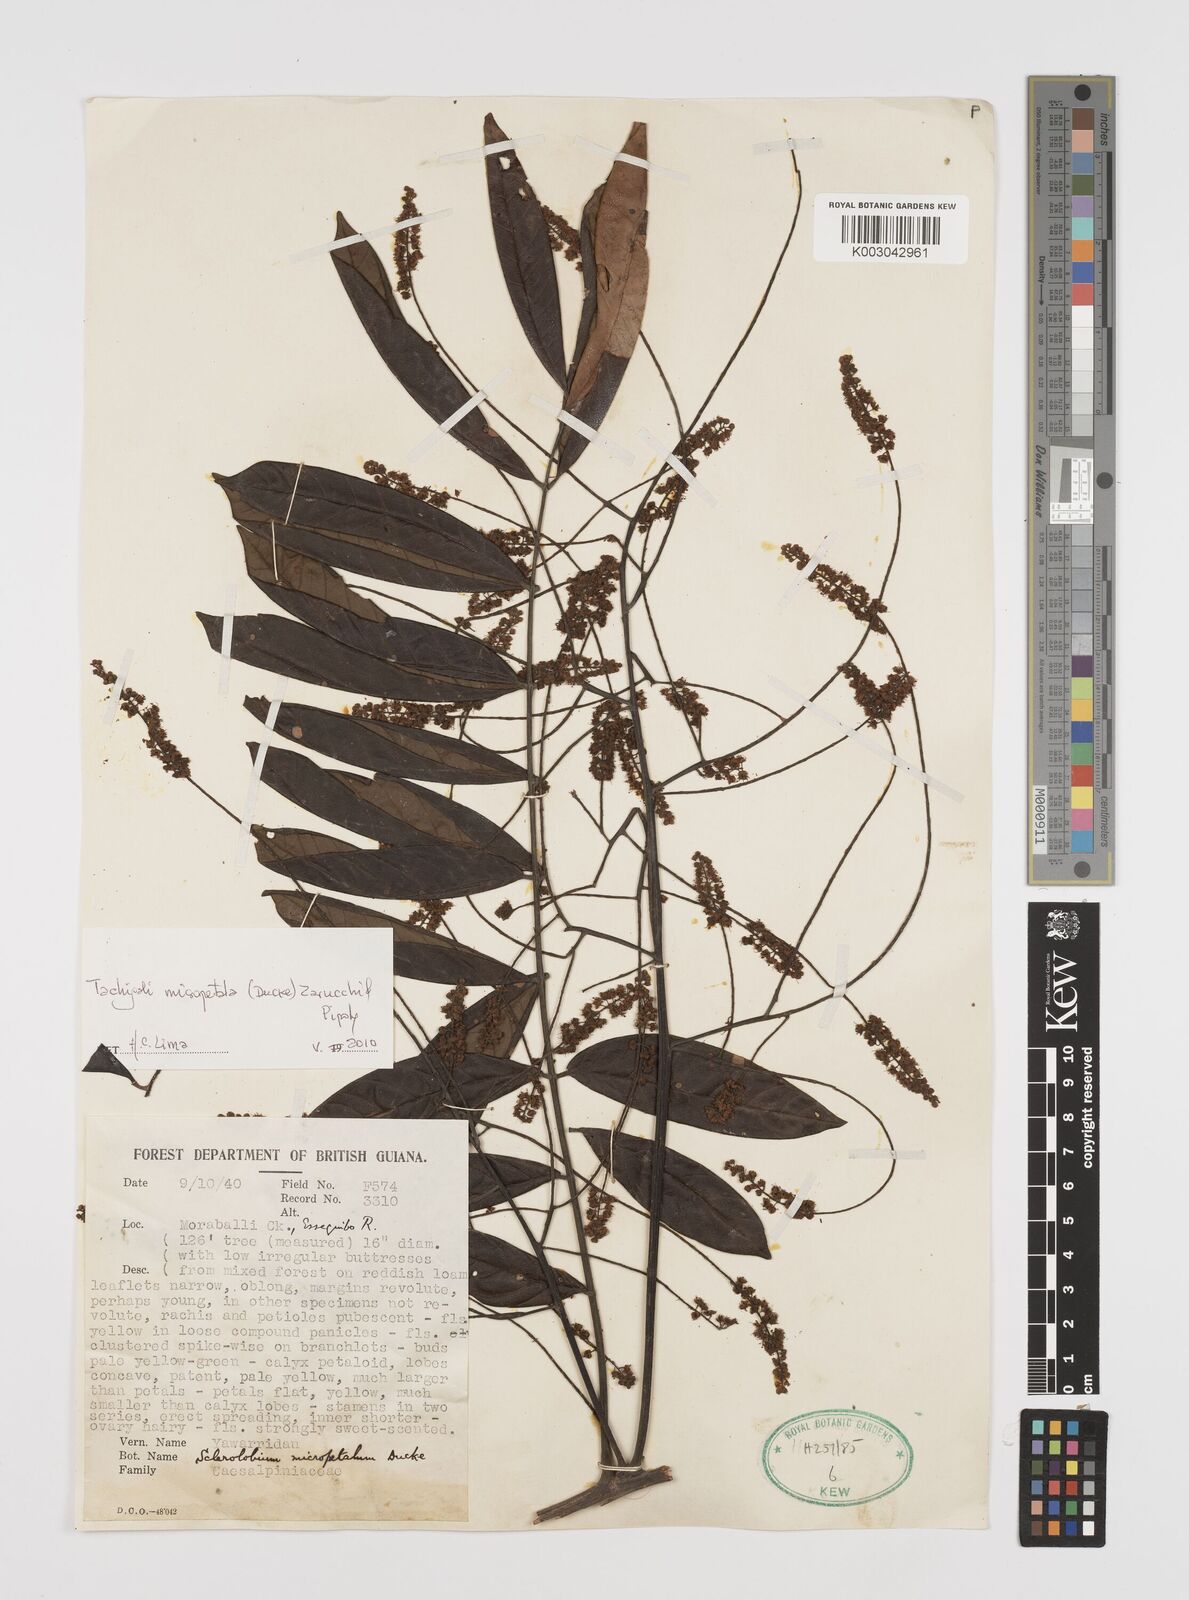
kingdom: Plantae
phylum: Tracheophyta
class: Magnoliopsida
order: Fabales
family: Fabaceae
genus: Tachigali
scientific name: Tachigali micropetala
